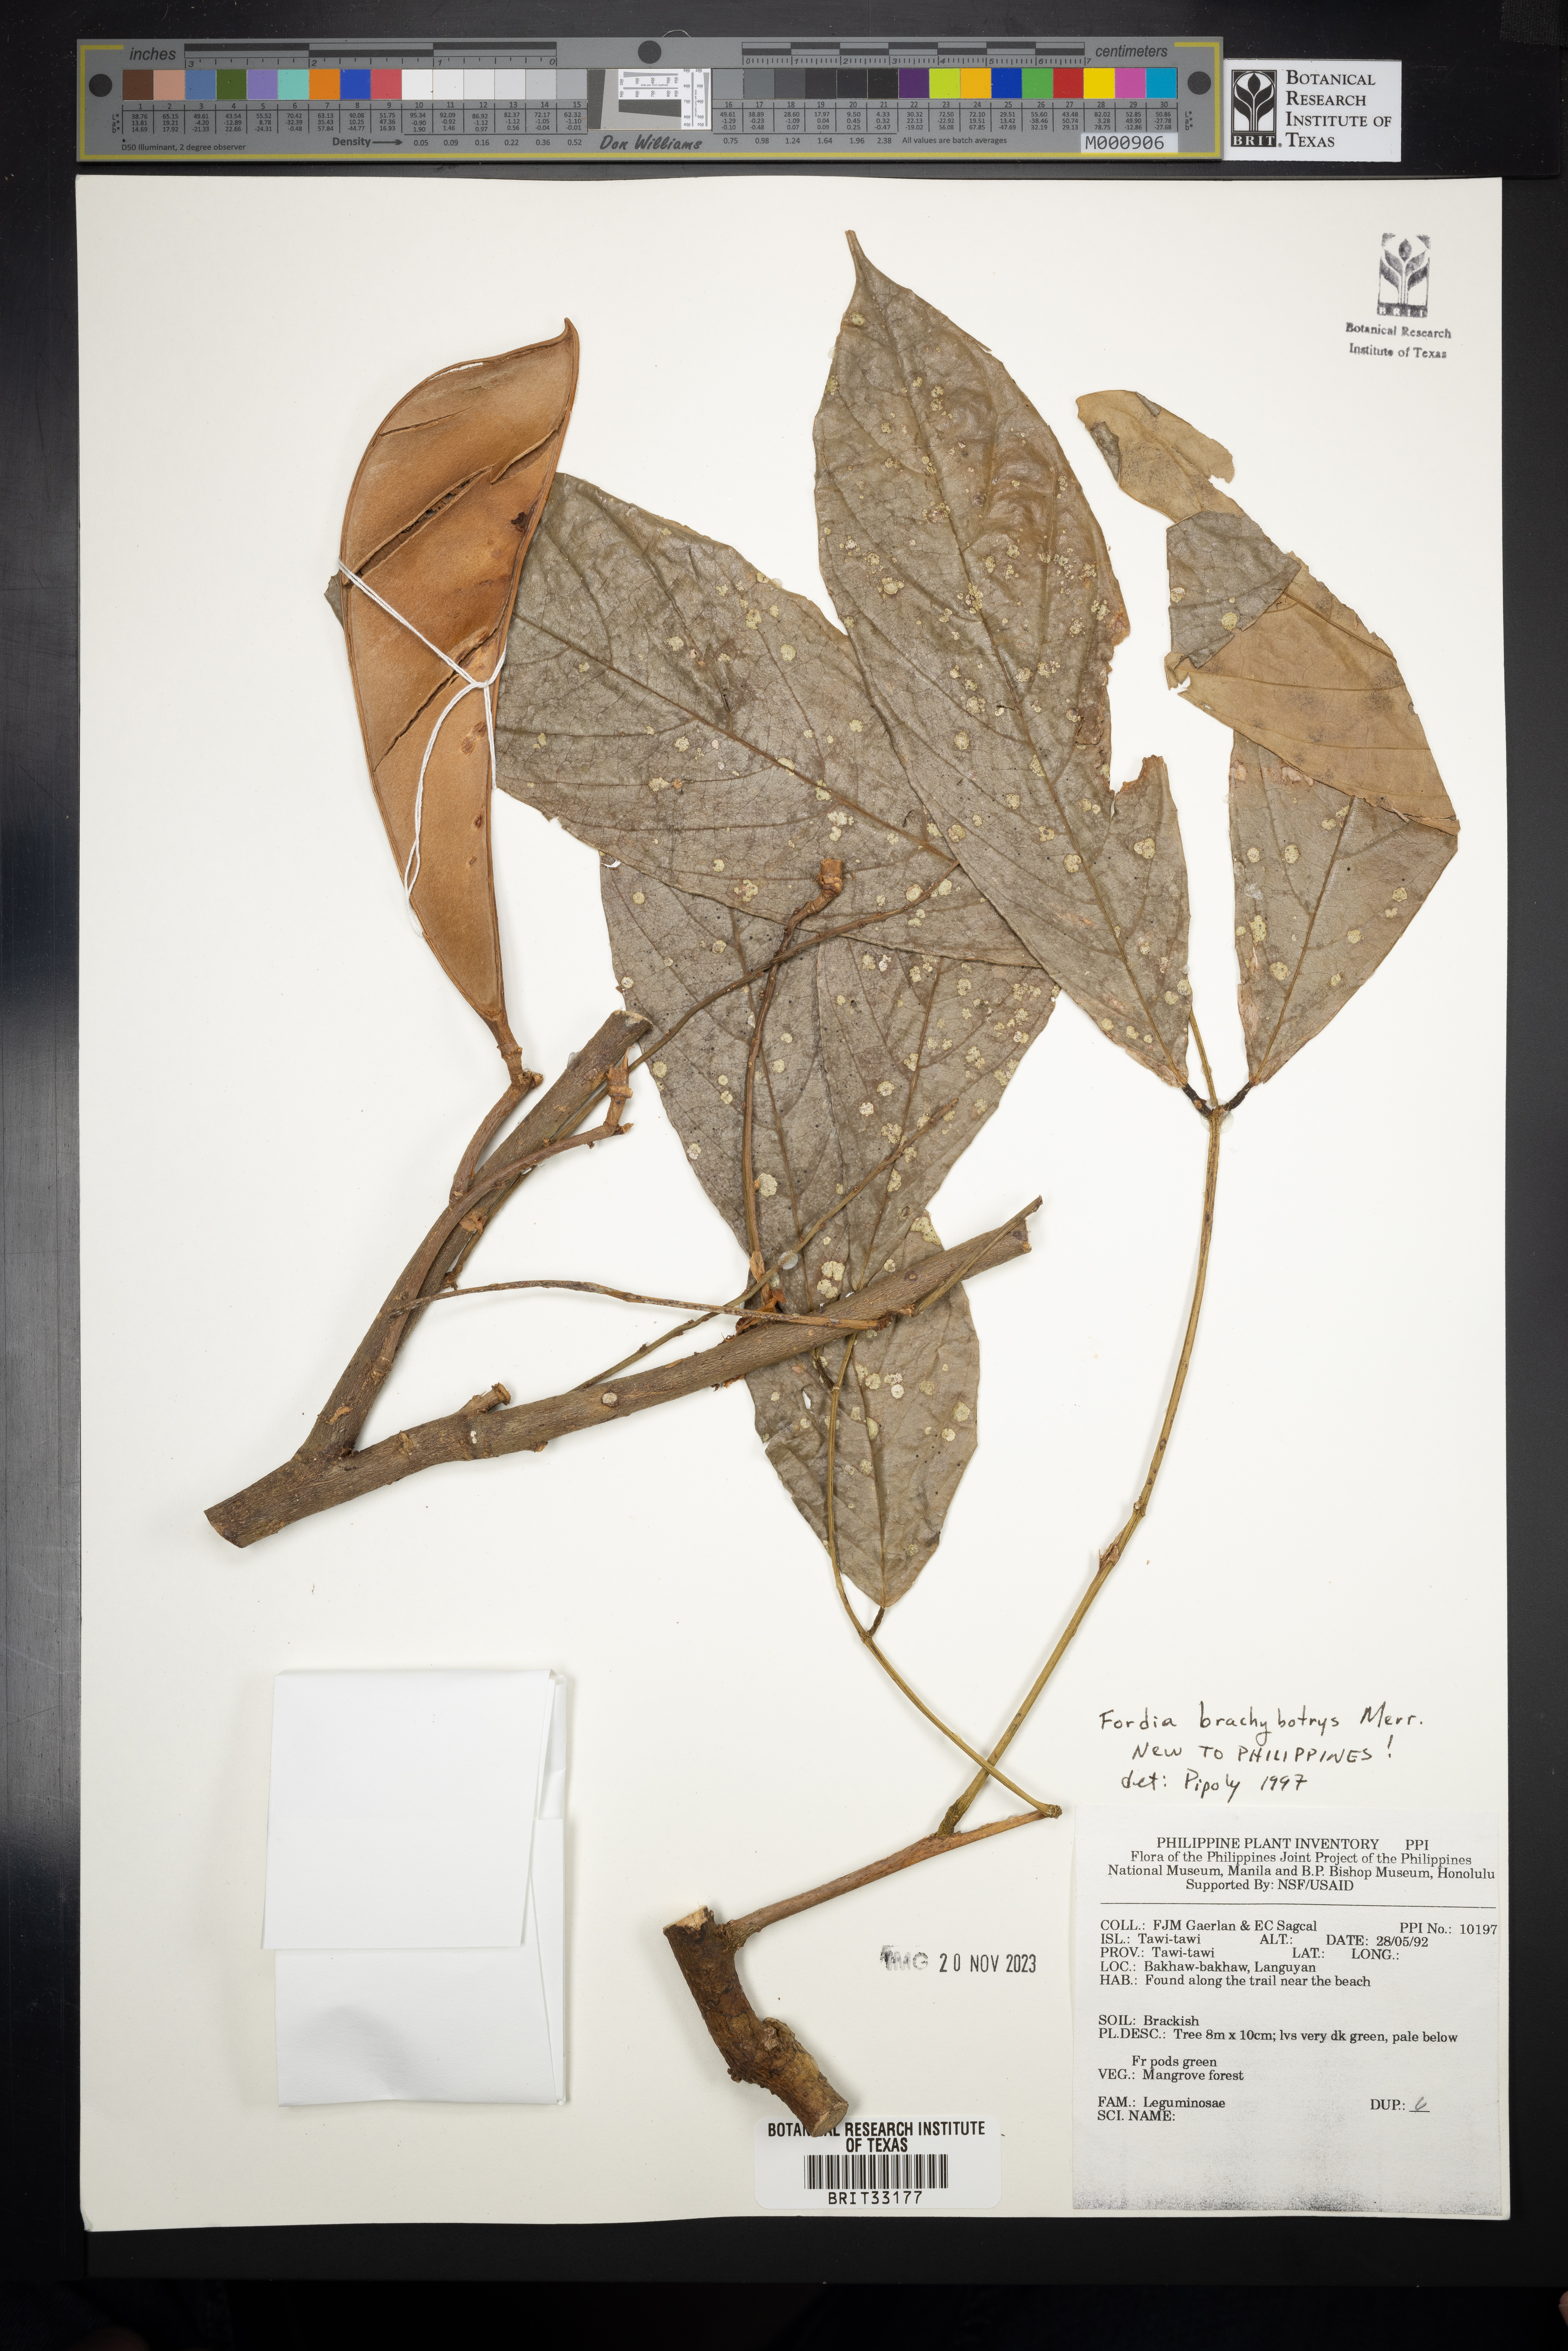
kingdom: Plantae
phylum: Tracheophyta
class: Magnoliopsida
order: Fabales
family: Fabaceae
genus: Fordia
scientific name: Fordia brachybotrys
